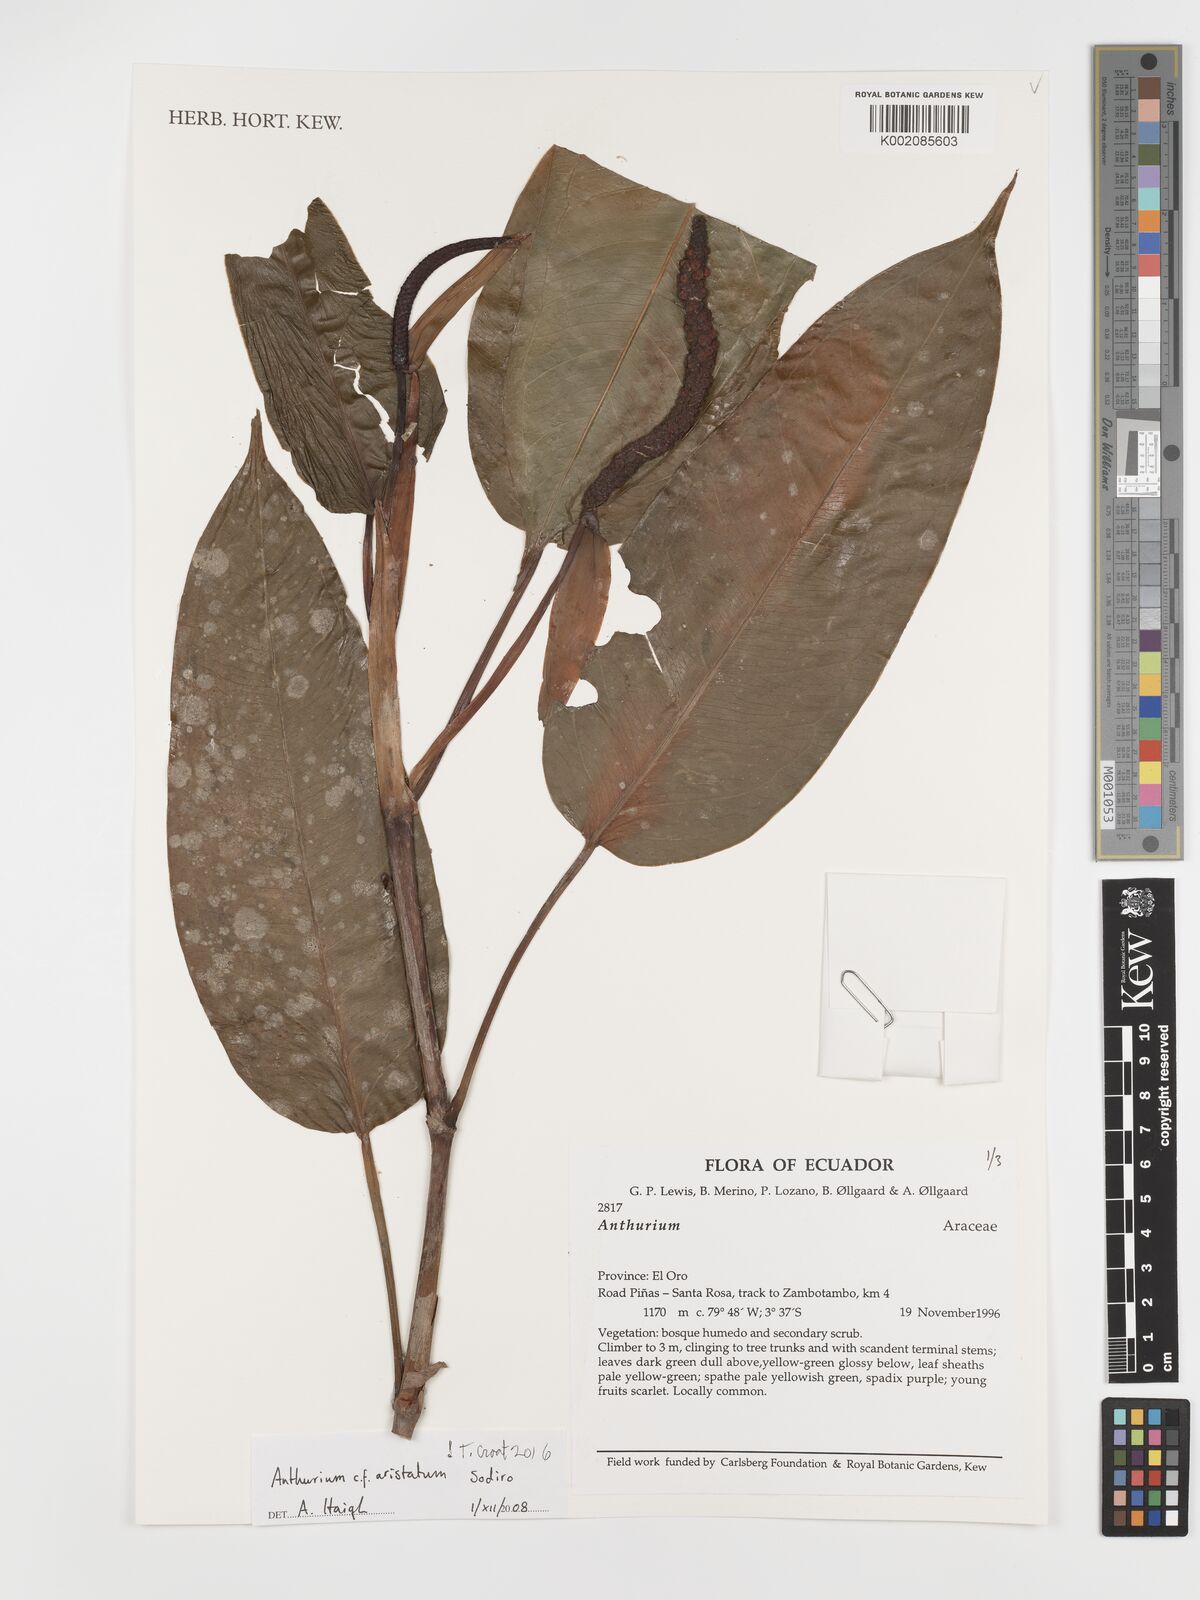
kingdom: Plantae
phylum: Tracheophyta
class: Liliopsida
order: Alismatales
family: Araceae
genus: Anthurium
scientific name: Anthurium aristatum
